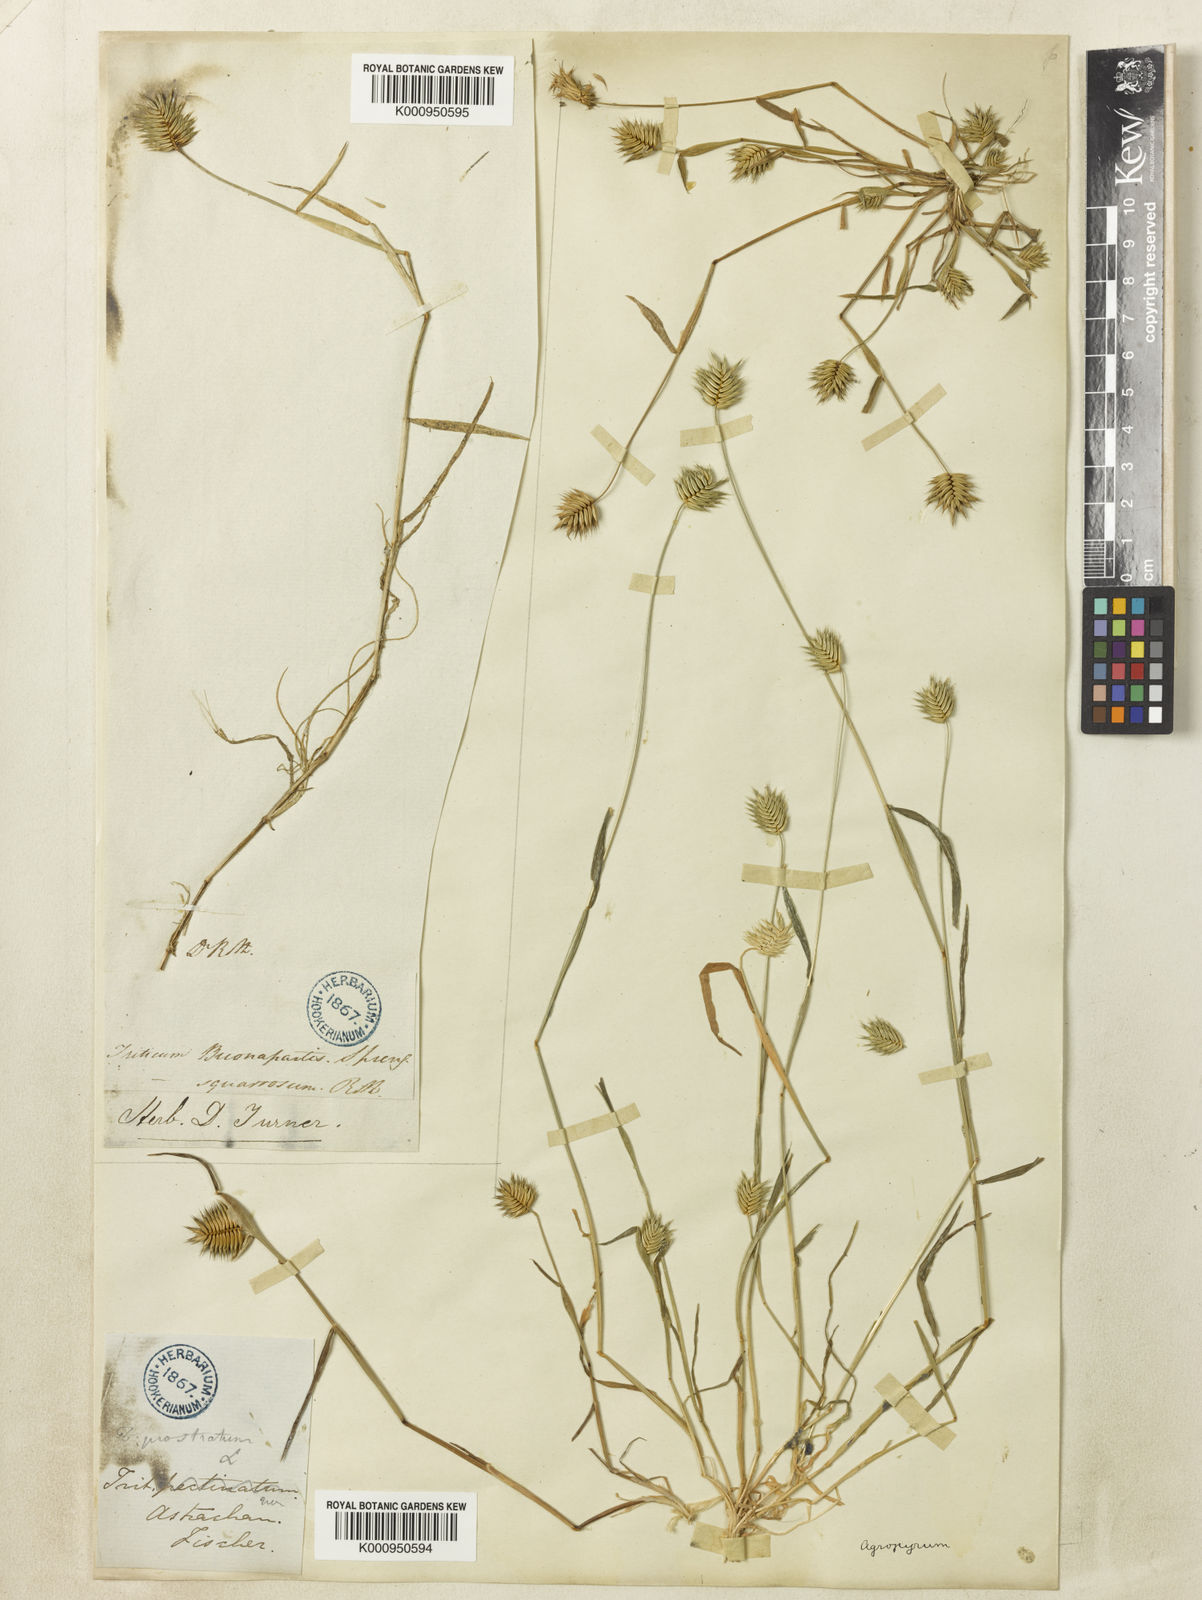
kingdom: Plantae
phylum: Tracheophyta
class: Liliopsida
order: Poales
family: Poaceae
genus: Eremopyrum
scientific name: Eremopyrum triticeum
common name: Annual wheatgrass
